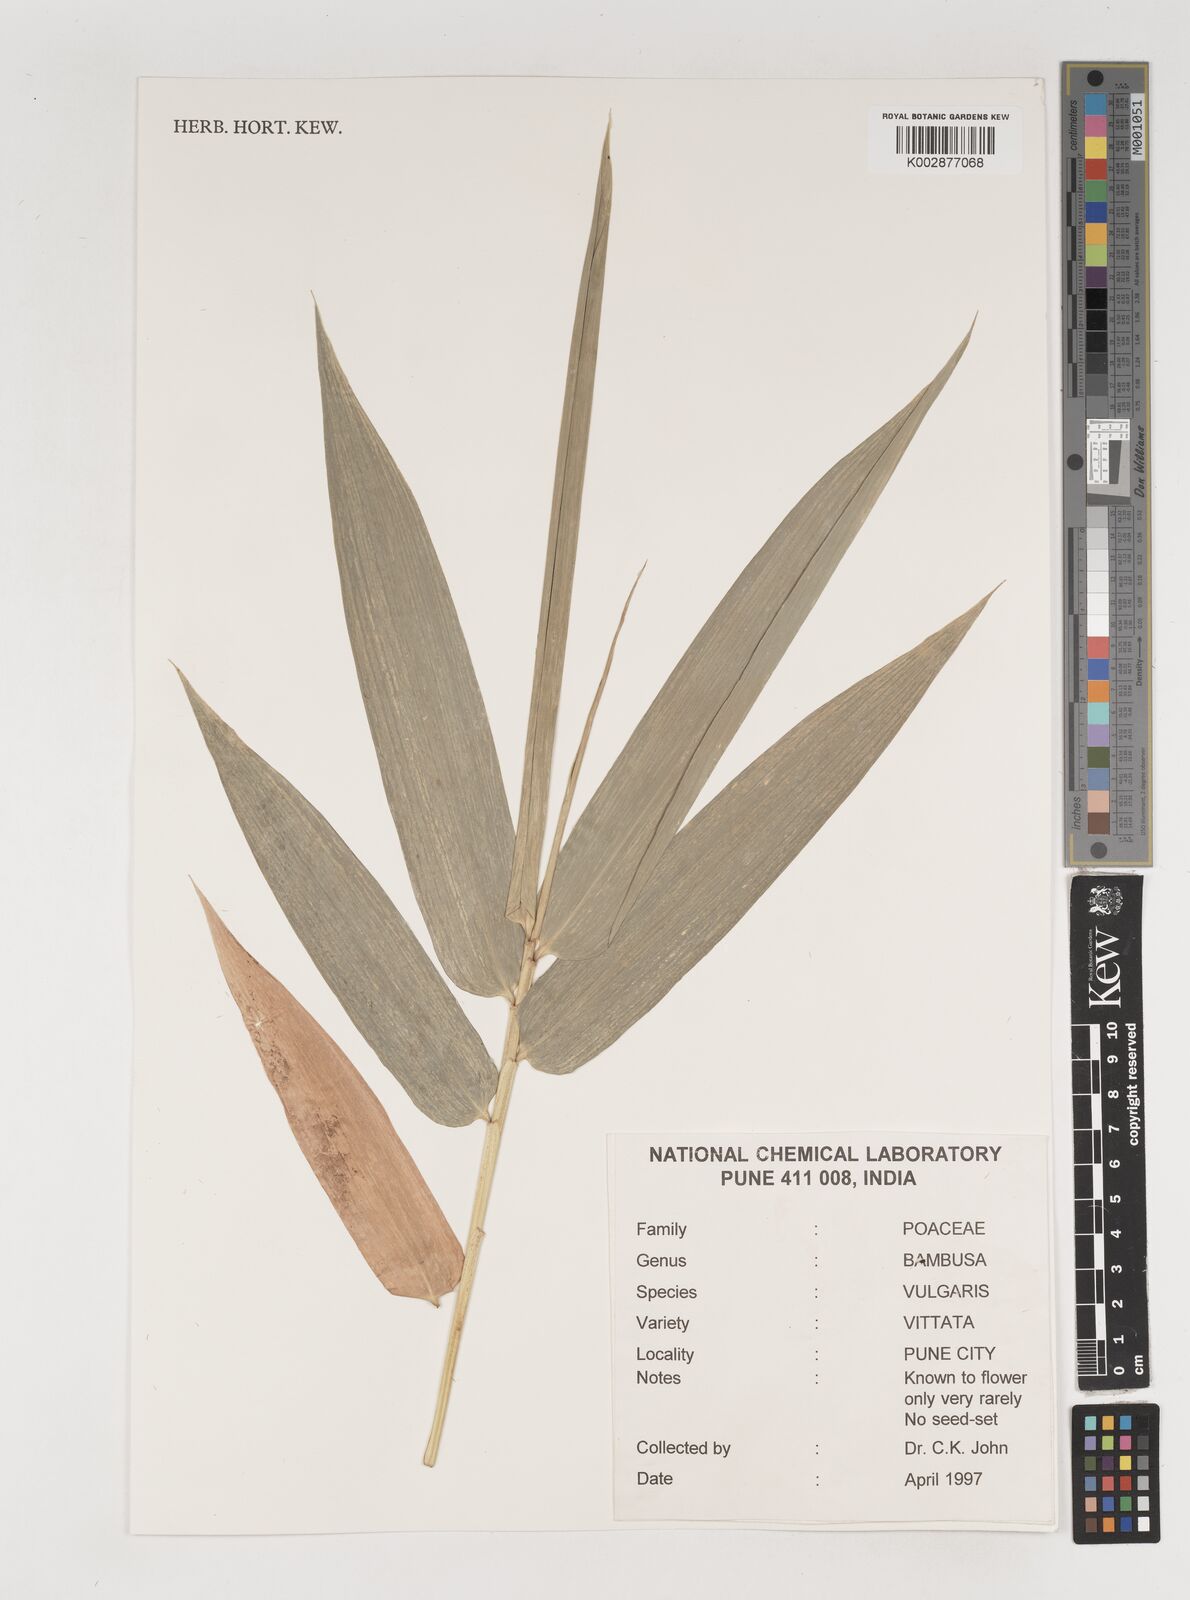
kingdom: Plantae
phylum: Tracheophyta
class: Liliopsida
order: Poales
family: Poaceae
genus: Bambusa
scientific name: Bambusa
